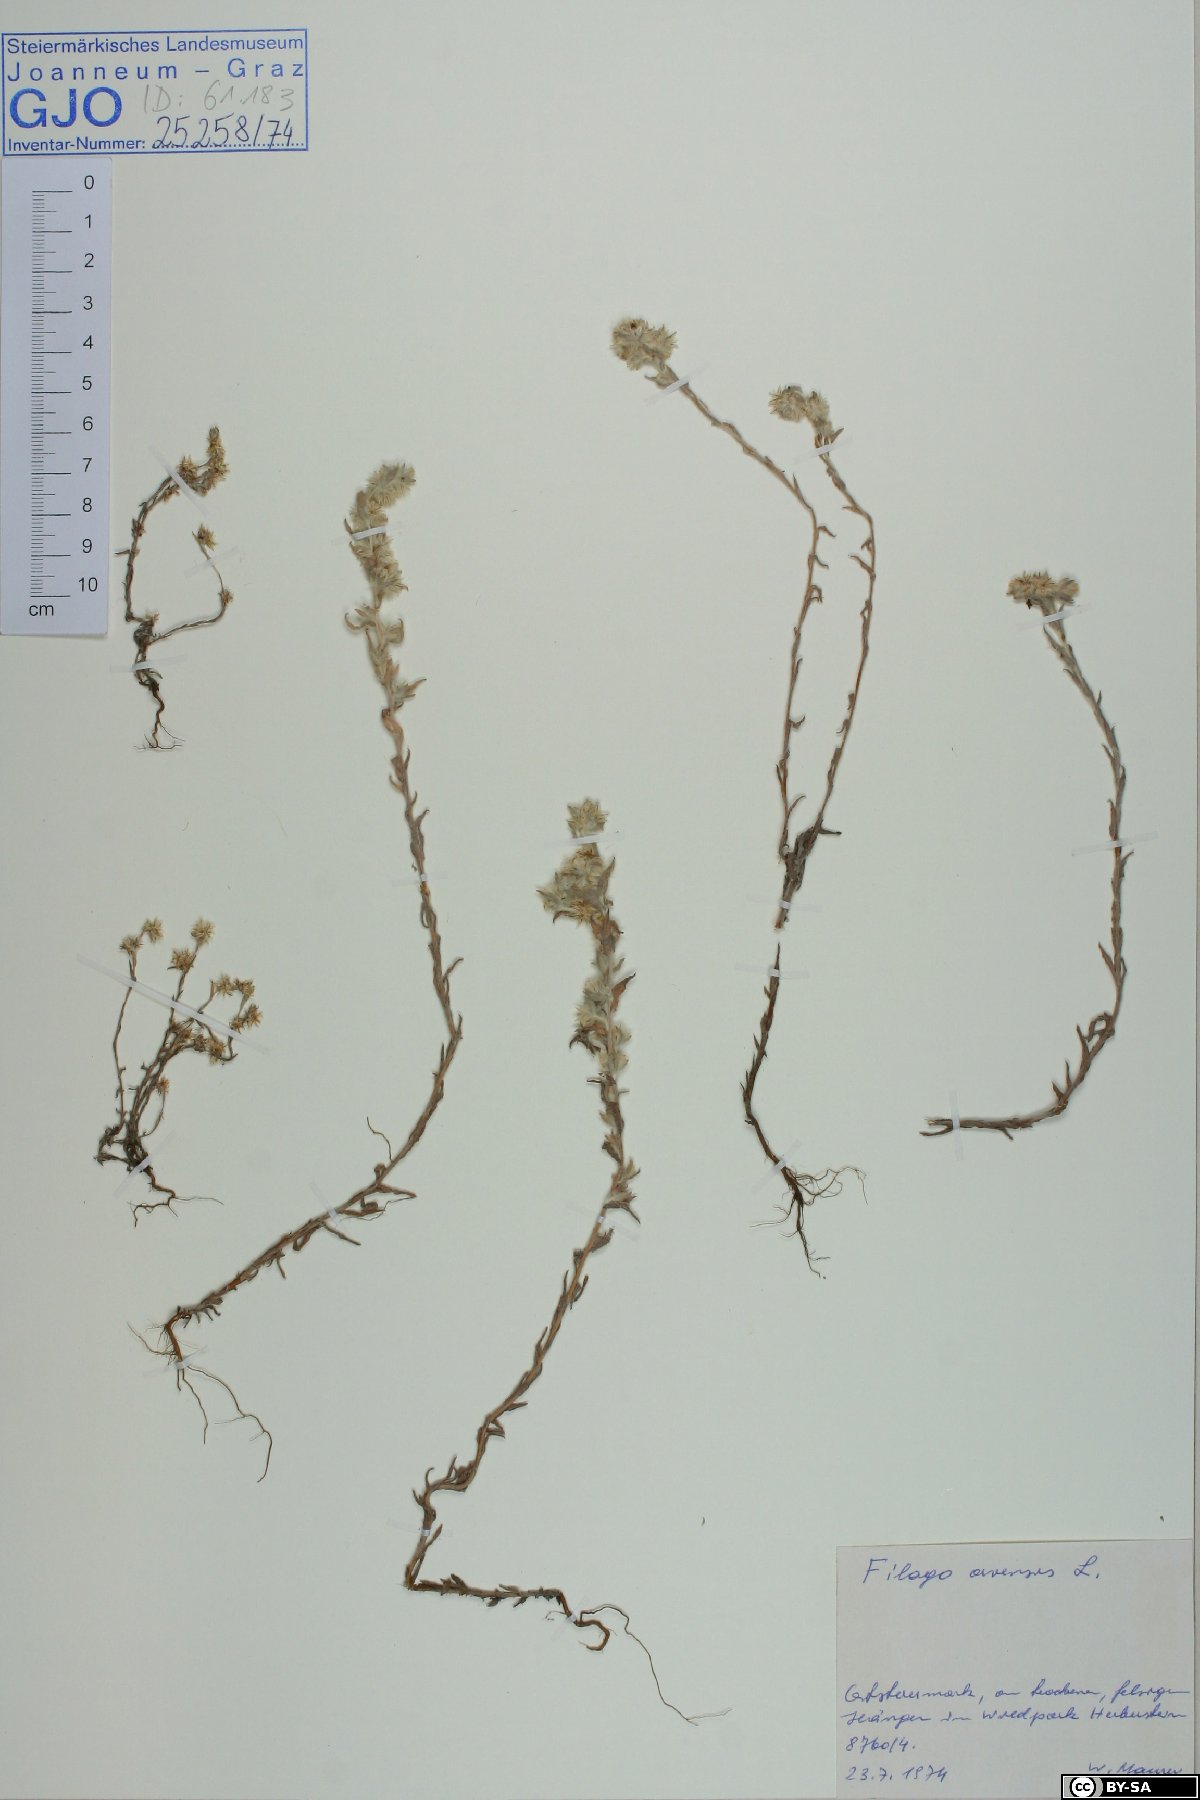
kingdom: Plantae
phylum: Tracheophyta
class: Magnoliopsida
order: Asterales
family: Asteraceae
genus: Filago
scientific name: Filago arvensis
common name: Field cudweed
